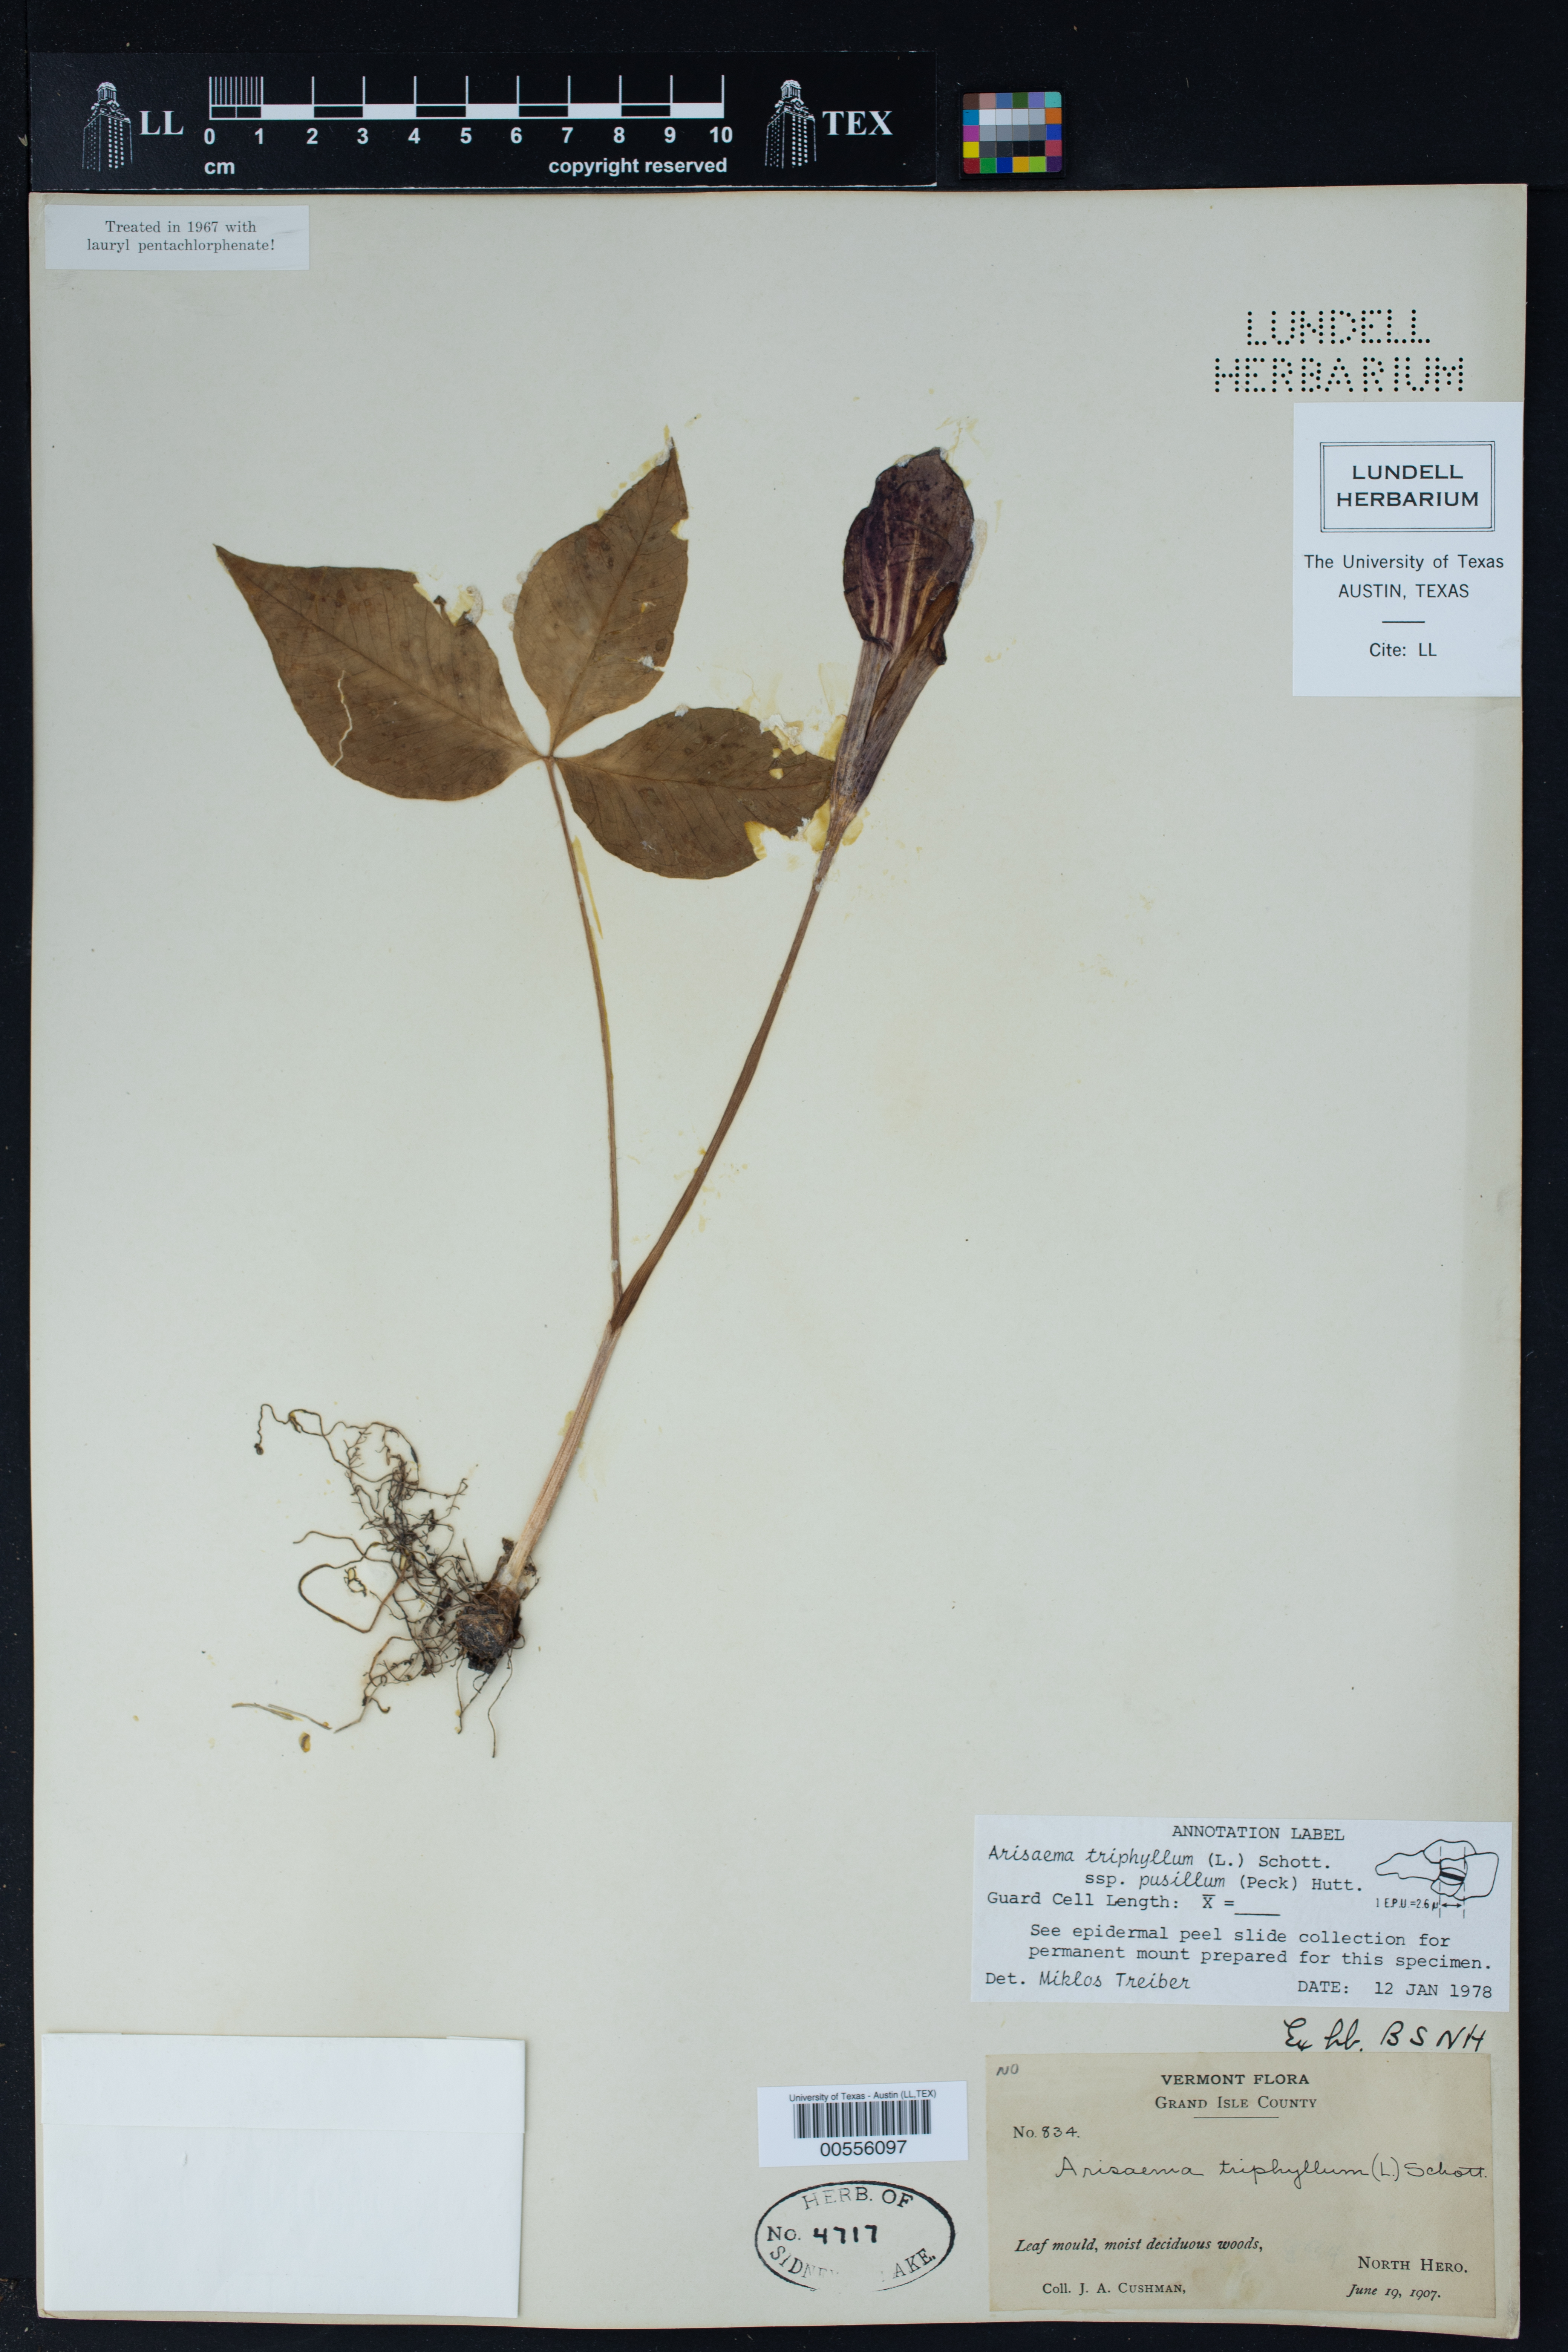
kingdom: Plantae
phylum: Tracheophyta
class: Liliopsida
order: Alismatales
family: Araceae
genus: Arisaema
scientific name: Arisaema pusillum
